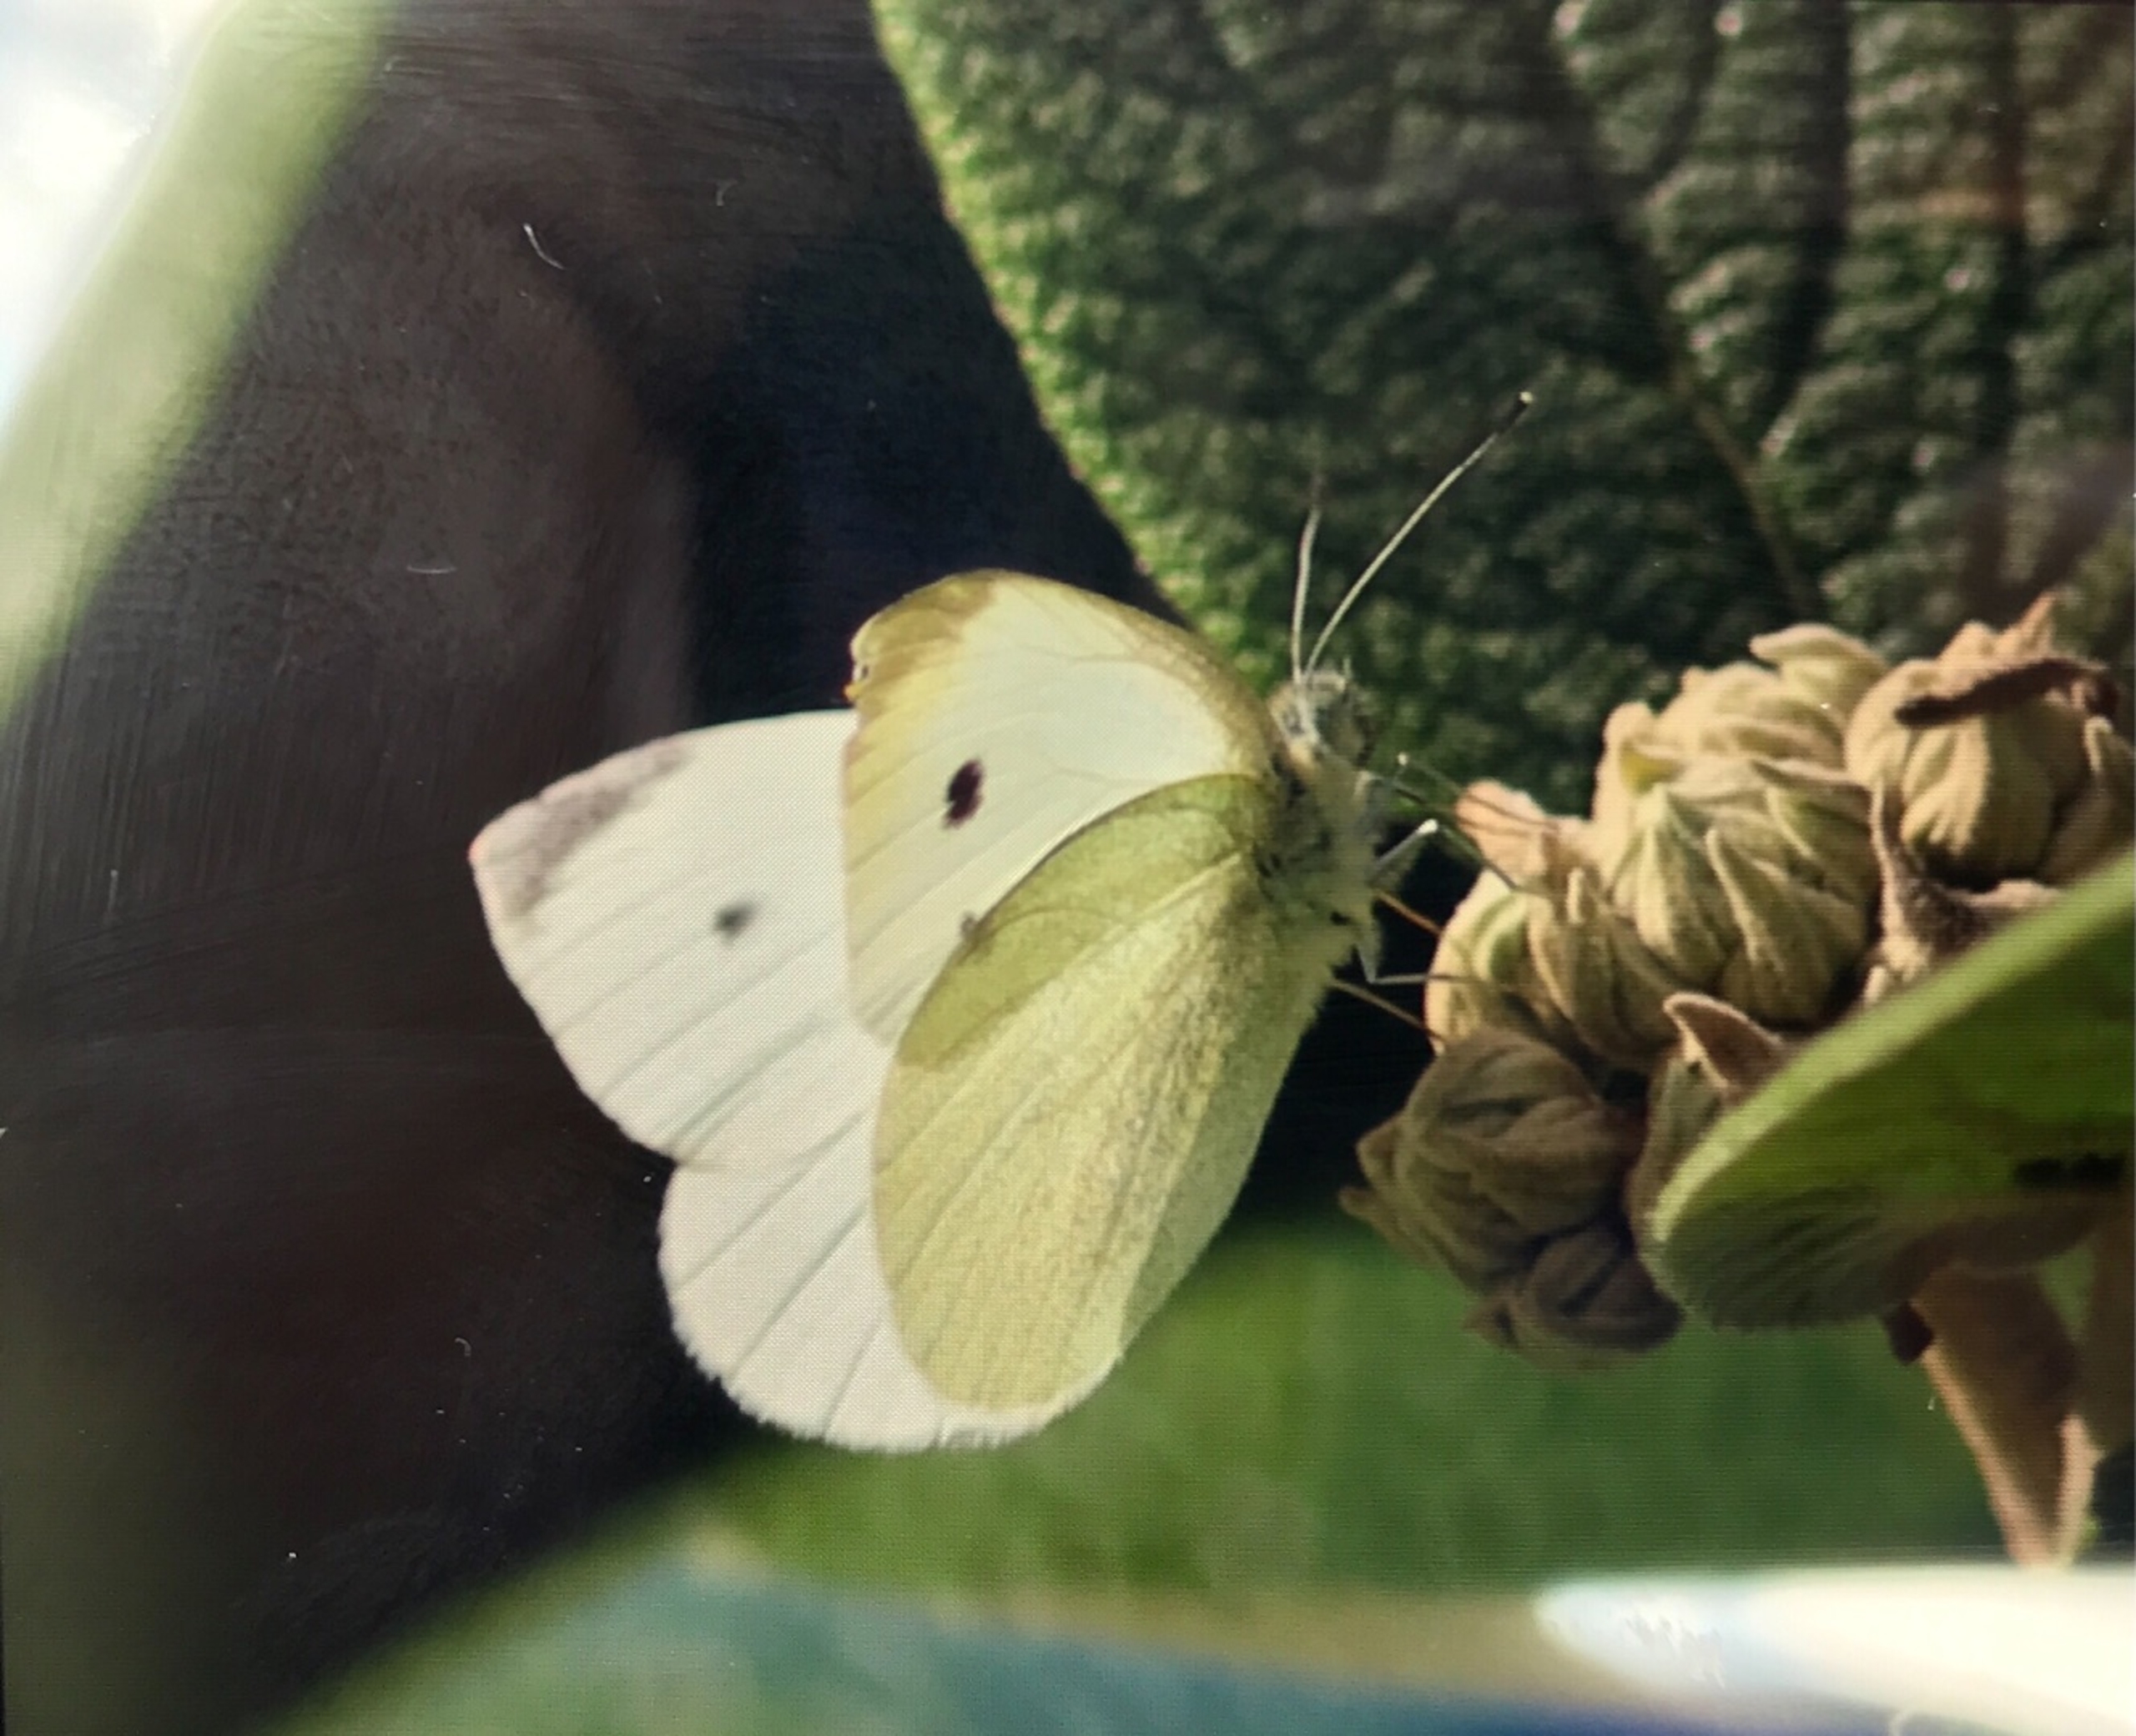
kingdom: Animalia
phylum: Arthropoda
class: Insecta
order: Lepidoptera
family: Pieridae
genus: Pieris
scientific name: Pieris rapae
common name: Lille kålsommerfugl
